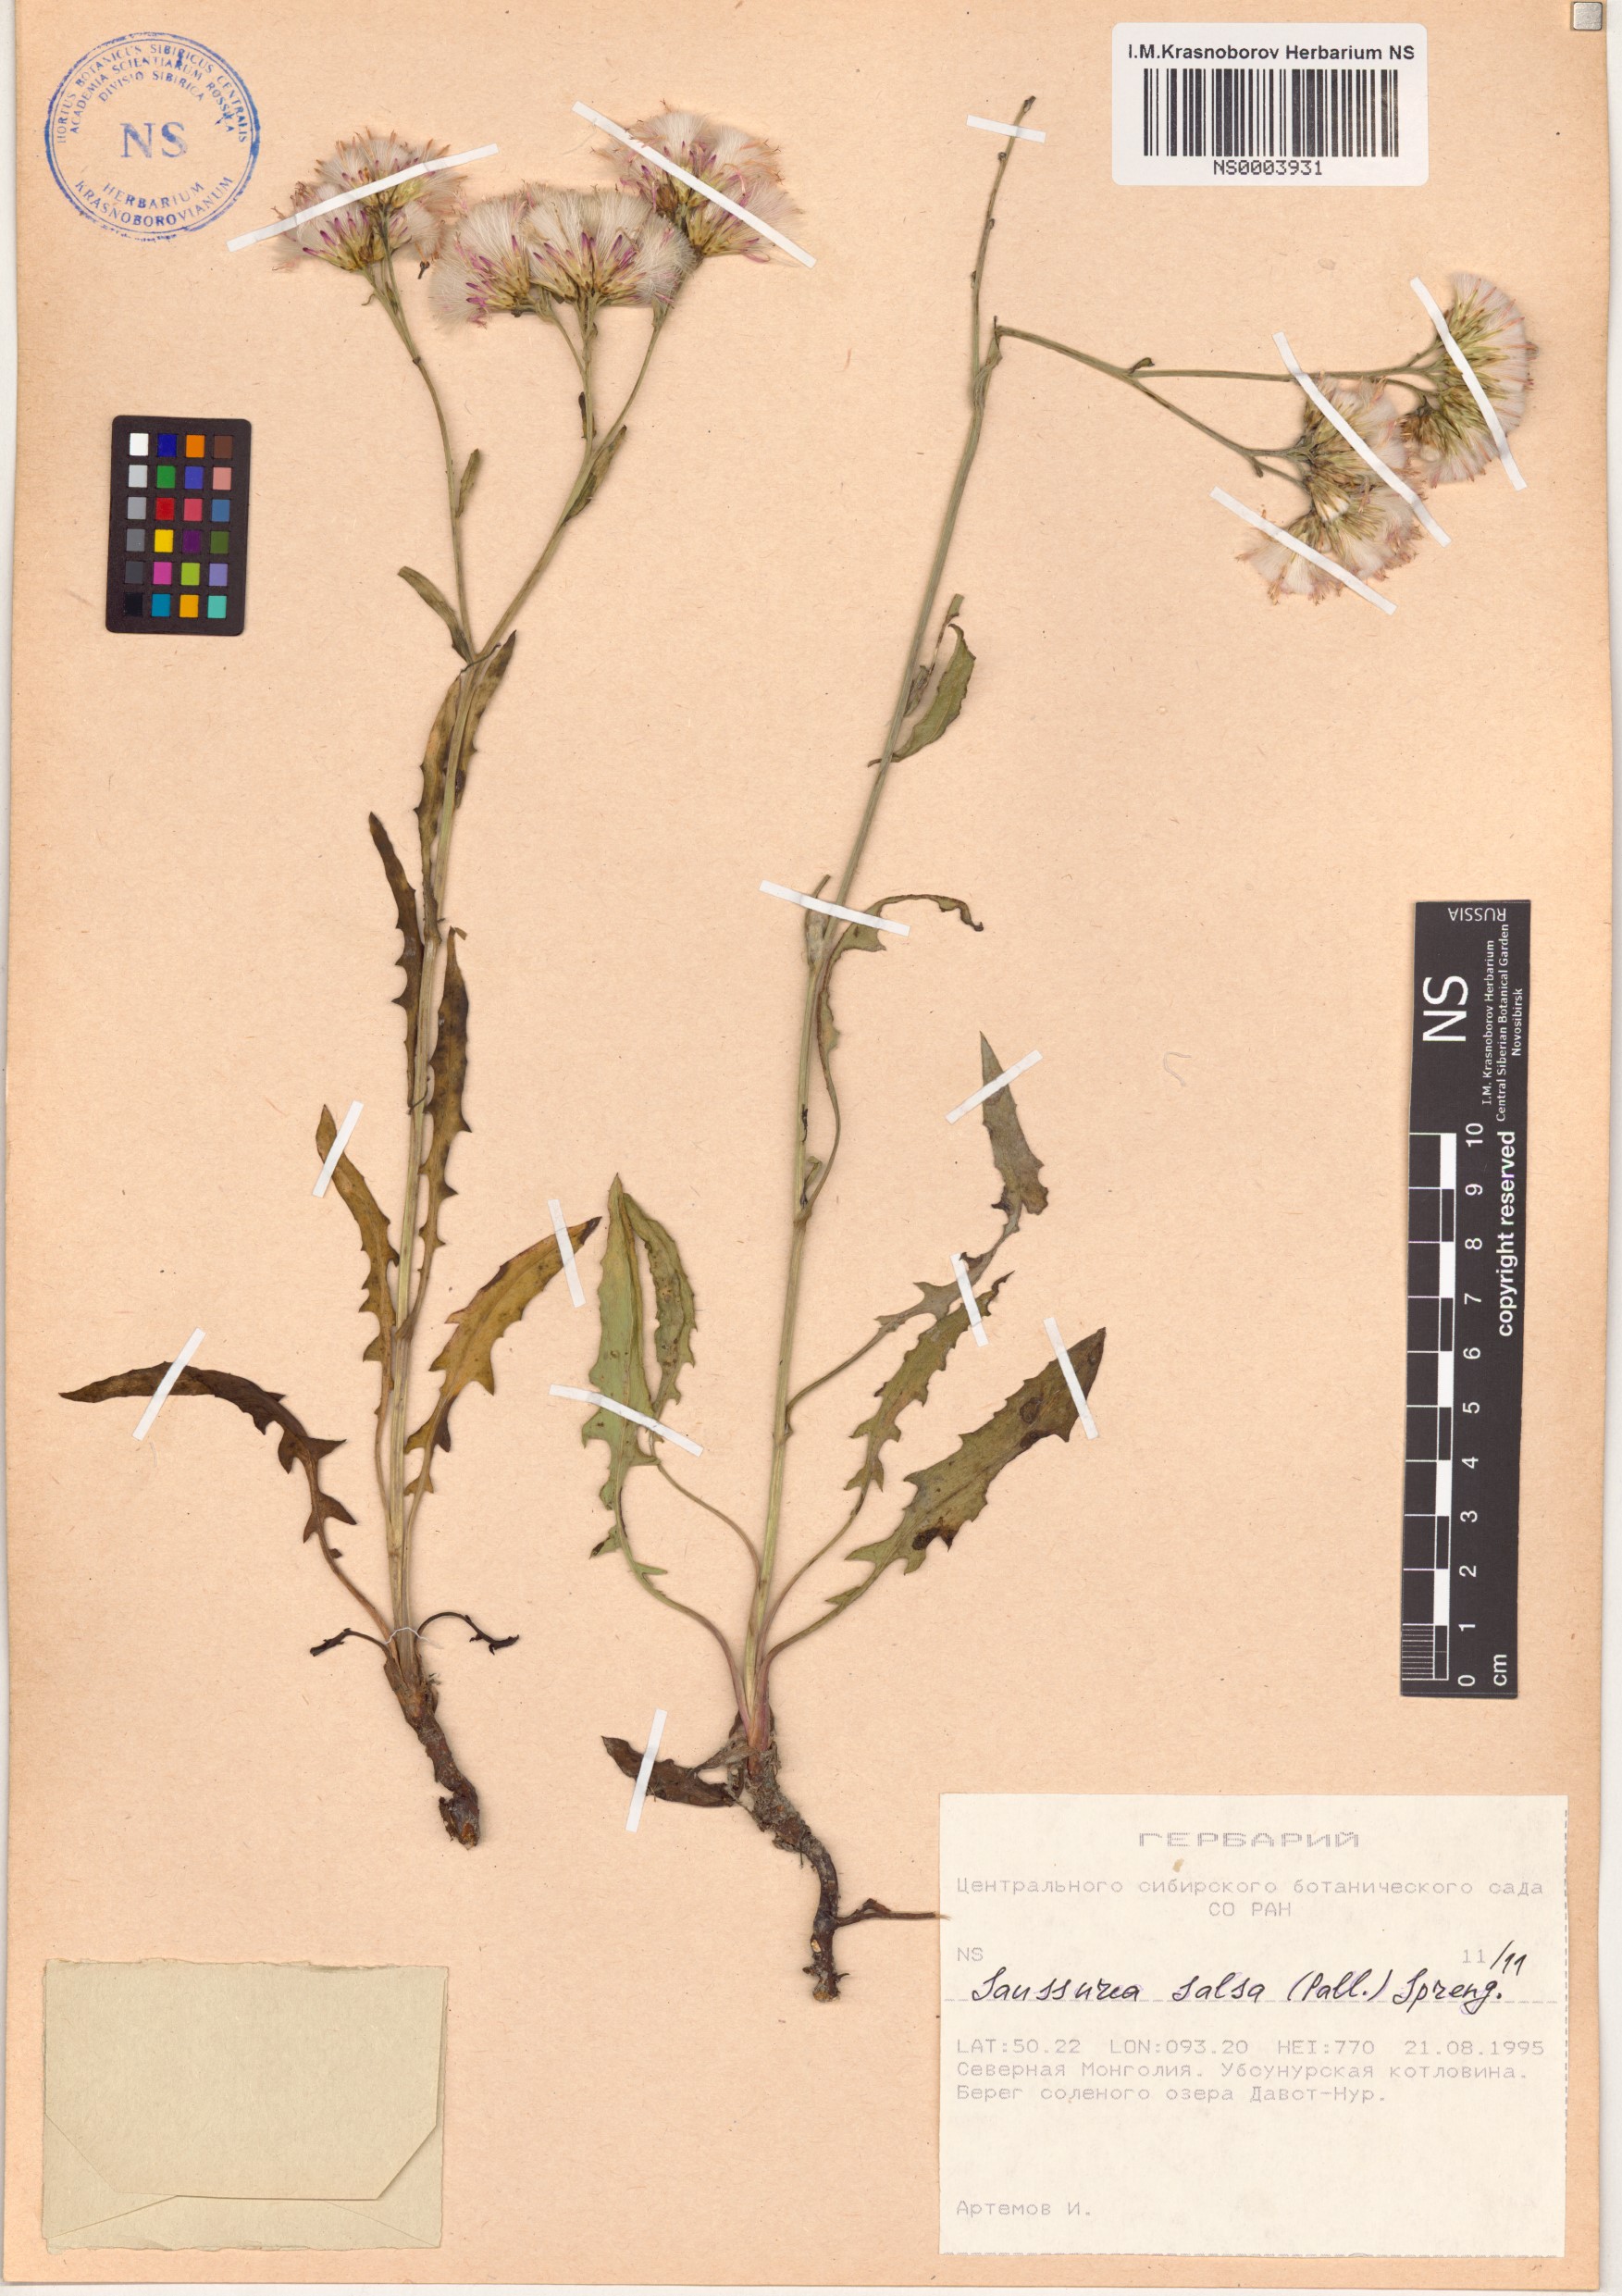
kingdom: Plantae
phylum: Tracheophyta
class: Magnoliopsida
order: Asterales
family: Asteraceae
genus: Saussurea
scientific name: Saussurea salsa
